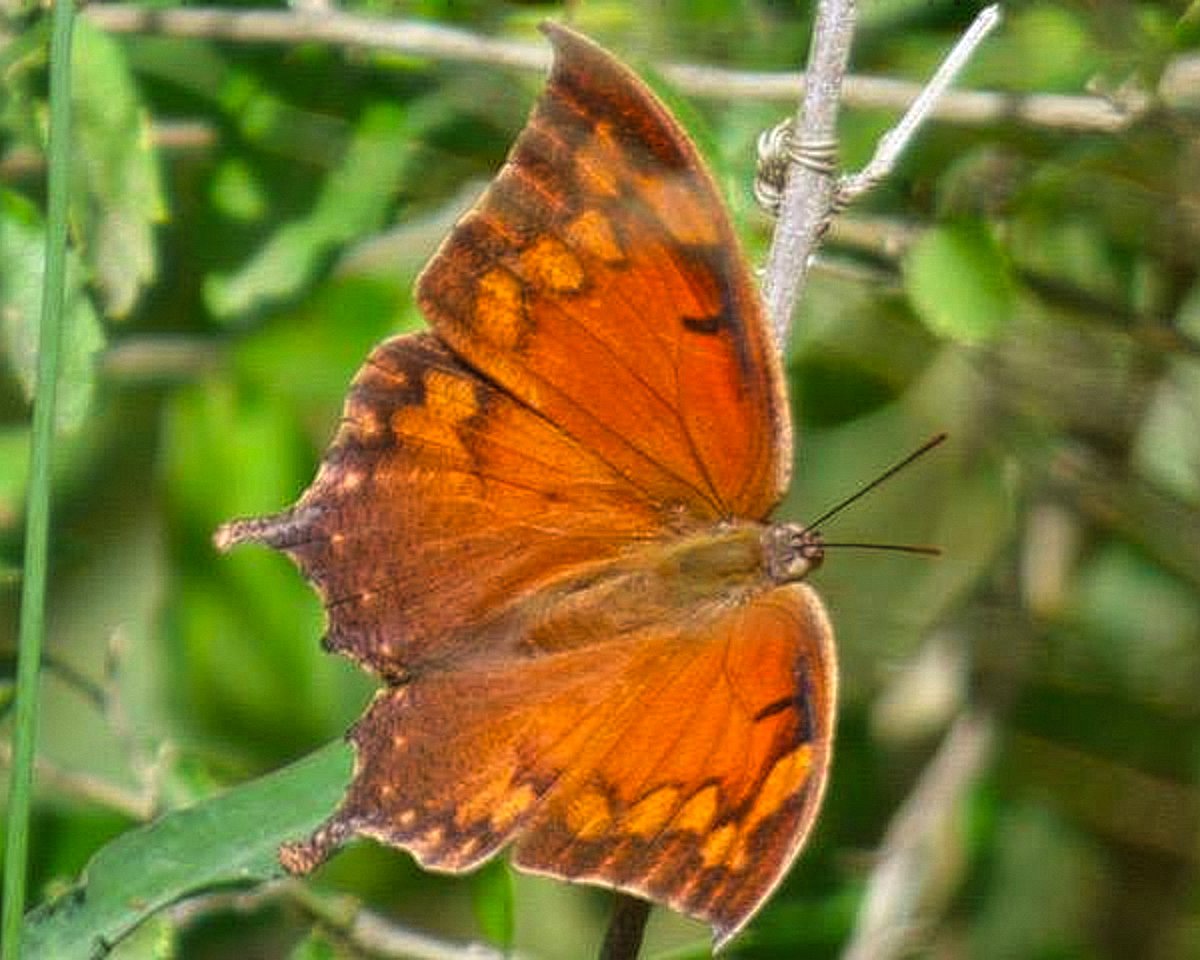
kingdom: Animalia
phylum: Arthropoda
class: Insecta
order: Lepidoptera
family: Nymphalidae
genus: Anaea
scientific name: Anaea aidea
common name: Tropical Leafwing
